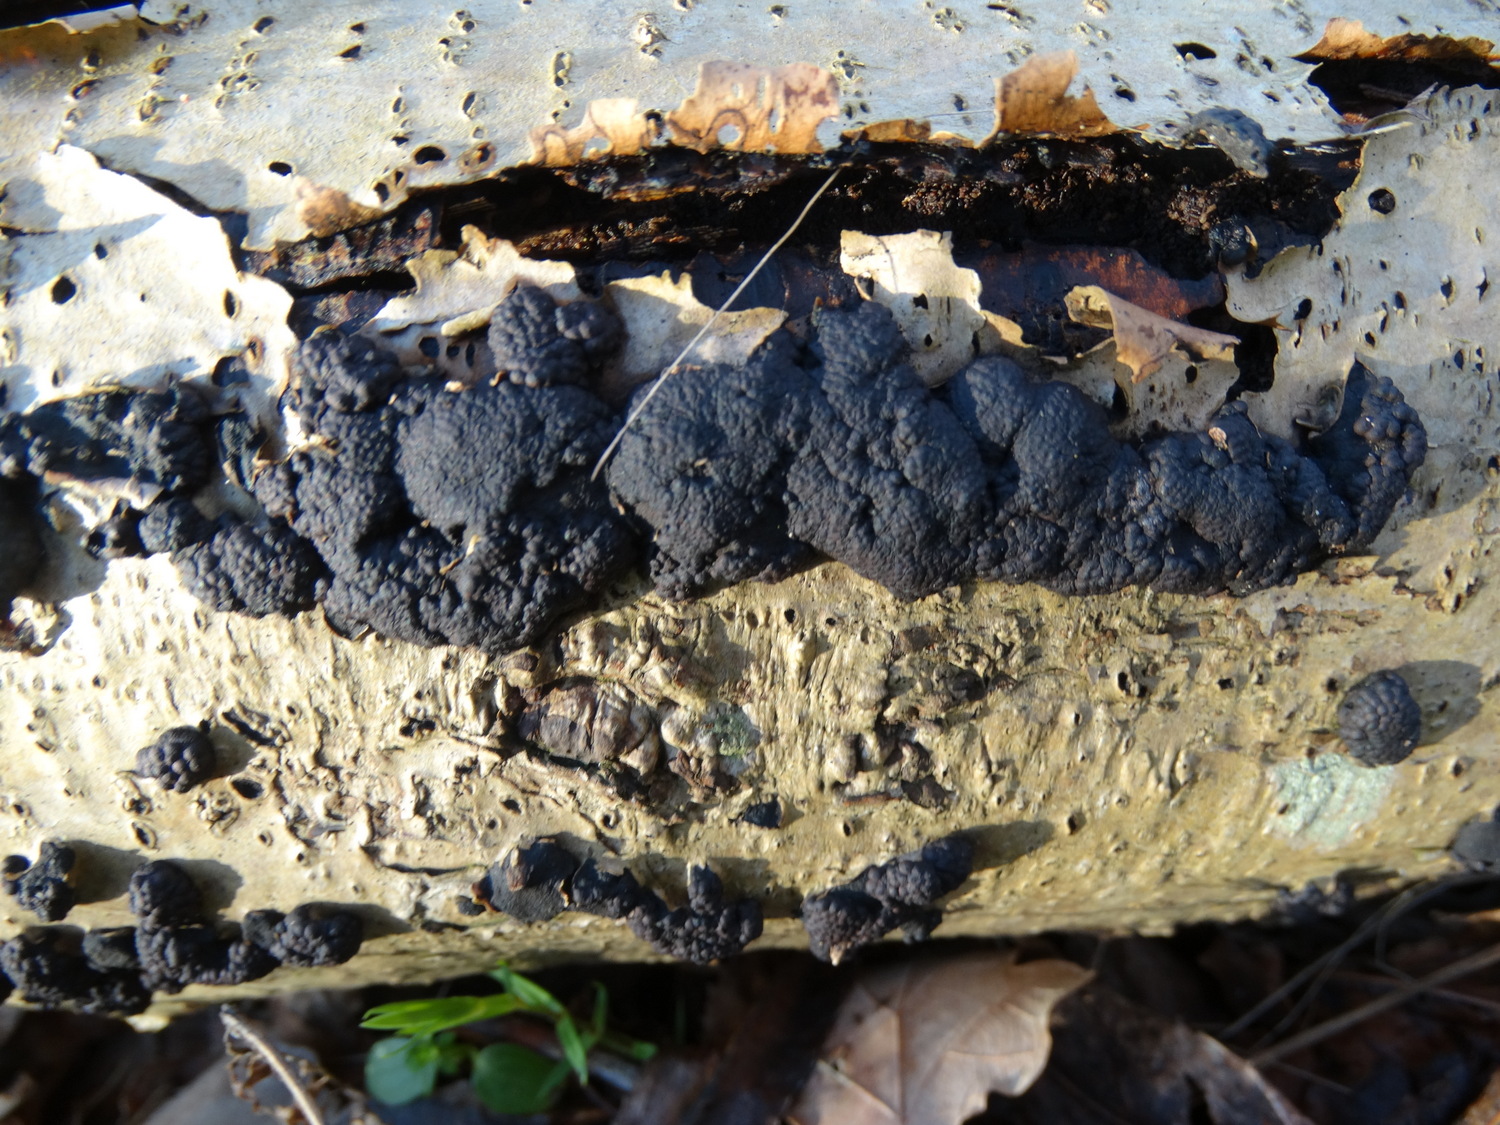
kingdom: Fungi
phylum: Ascomycota
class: Sordariomycetes
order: Xylariales
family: Hypoxylaceae
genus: Jackrogersella
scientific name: Jackrogersella multiformis
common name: foranderlig kulbær
